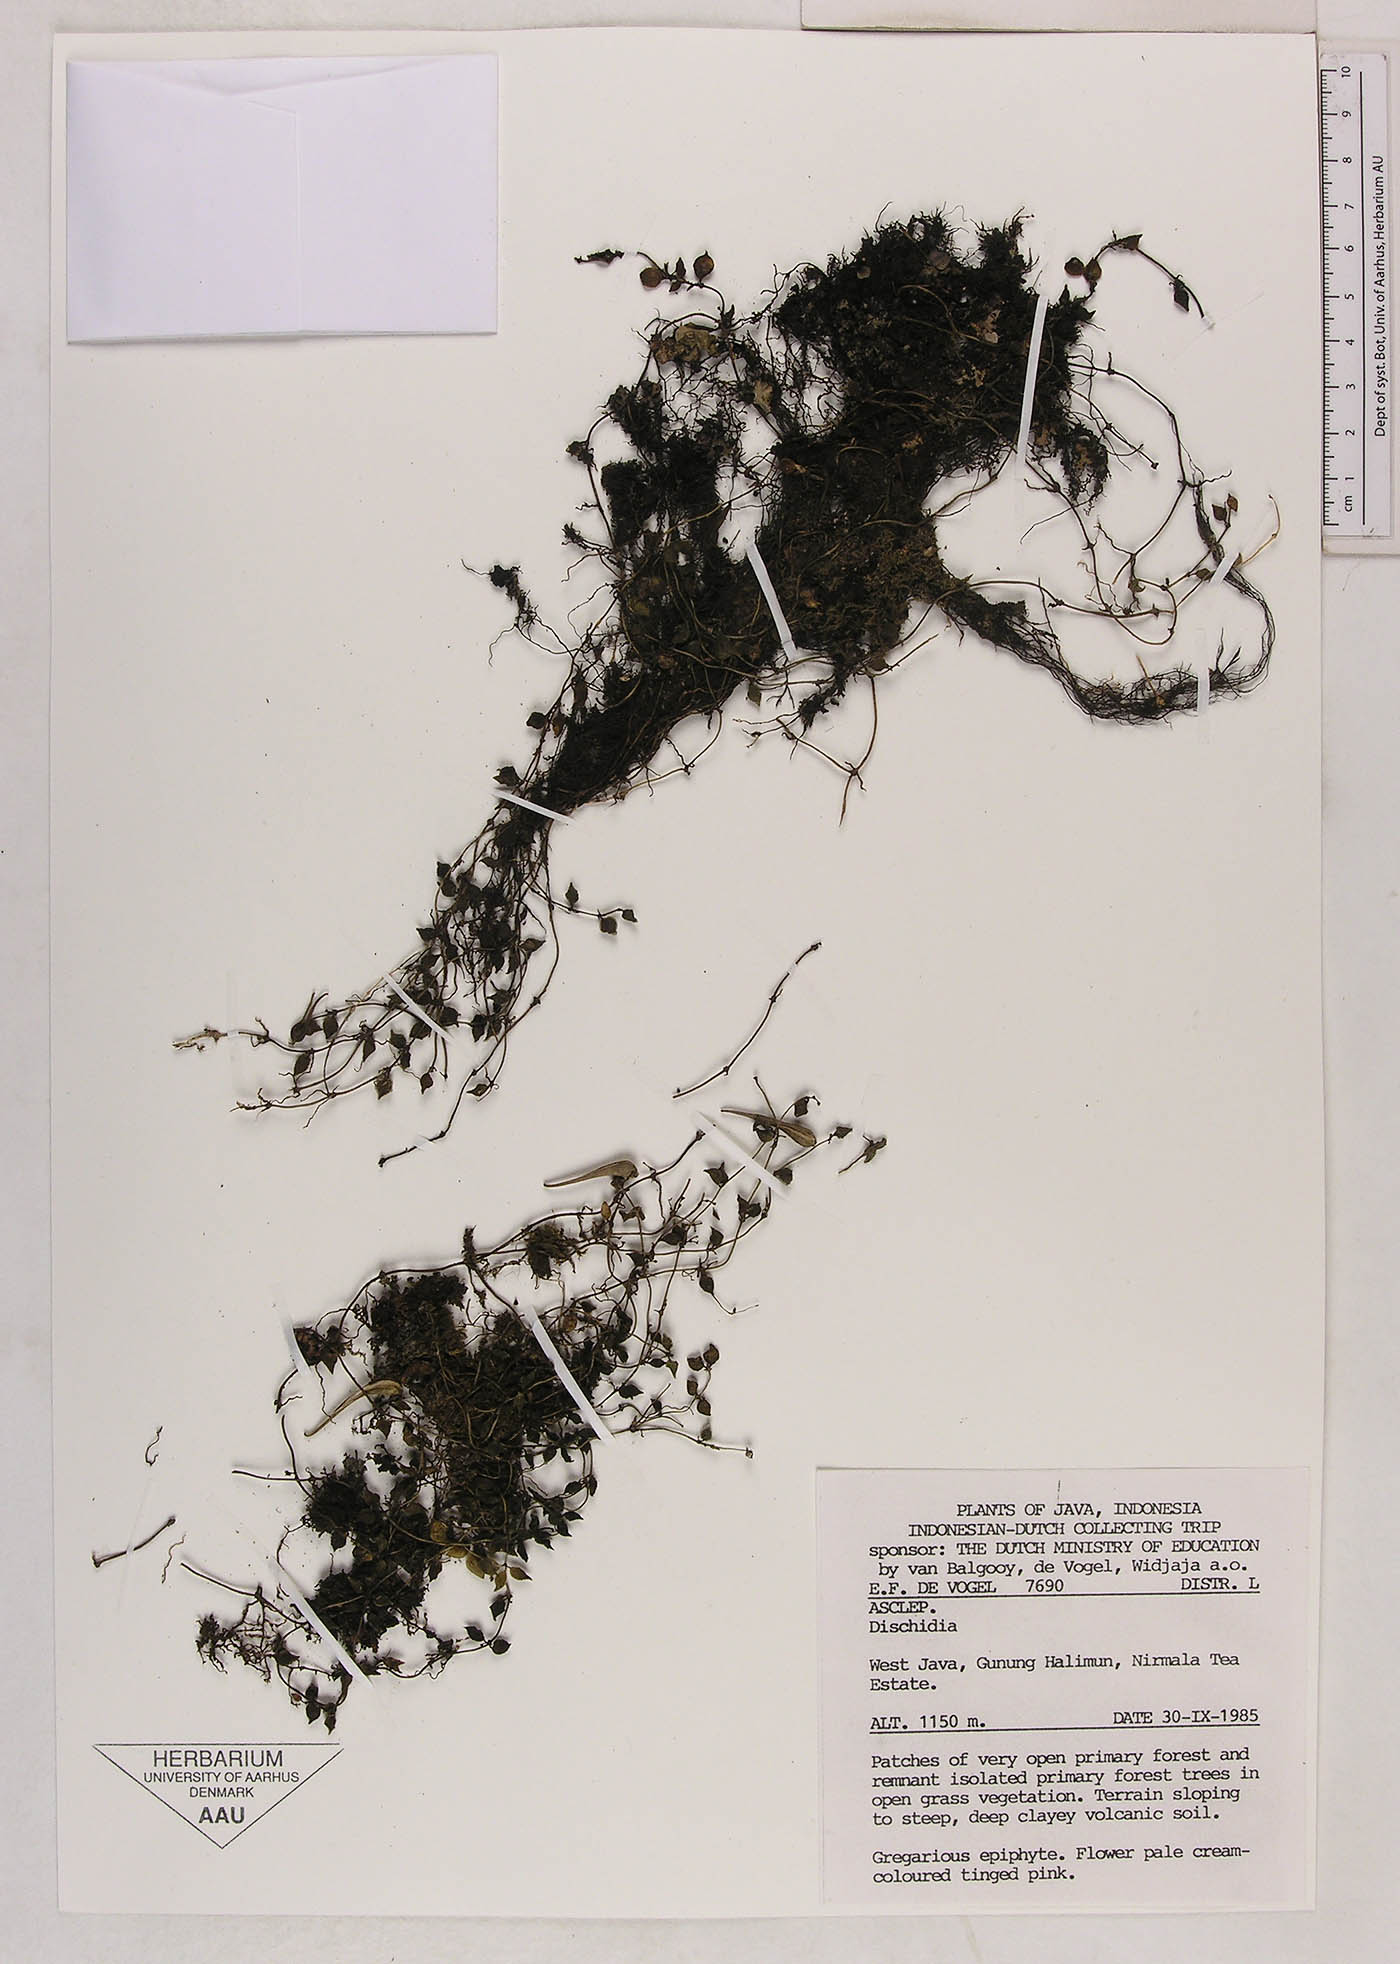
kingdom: Plantae
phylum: Tracheophyta
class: Magnoliopsida
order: Gentianales
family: Apocynaceae
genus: Dischidia
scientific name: Dischidia nummularia
